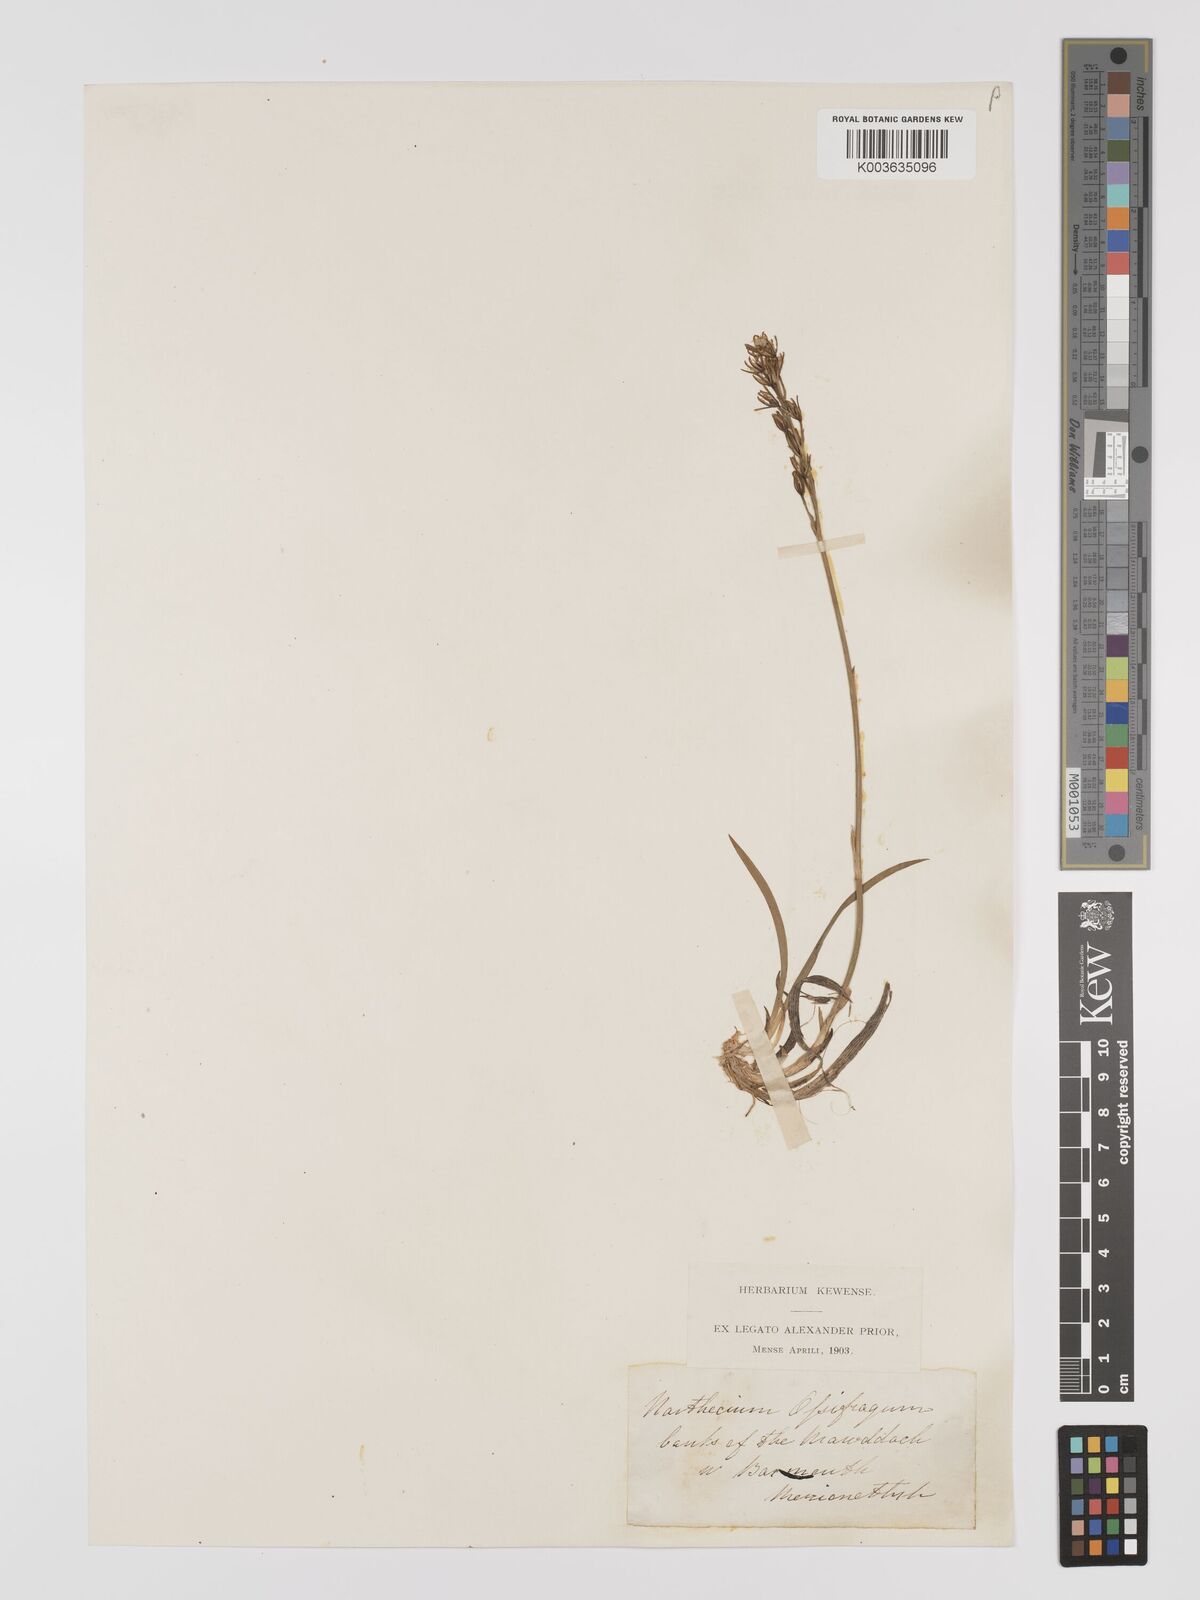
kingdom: Plantae
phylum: Tracheophyta
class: Liliopsida
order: Dioscoreales
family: Nartheciaceae
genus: Narthecium
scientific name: Narthecium
